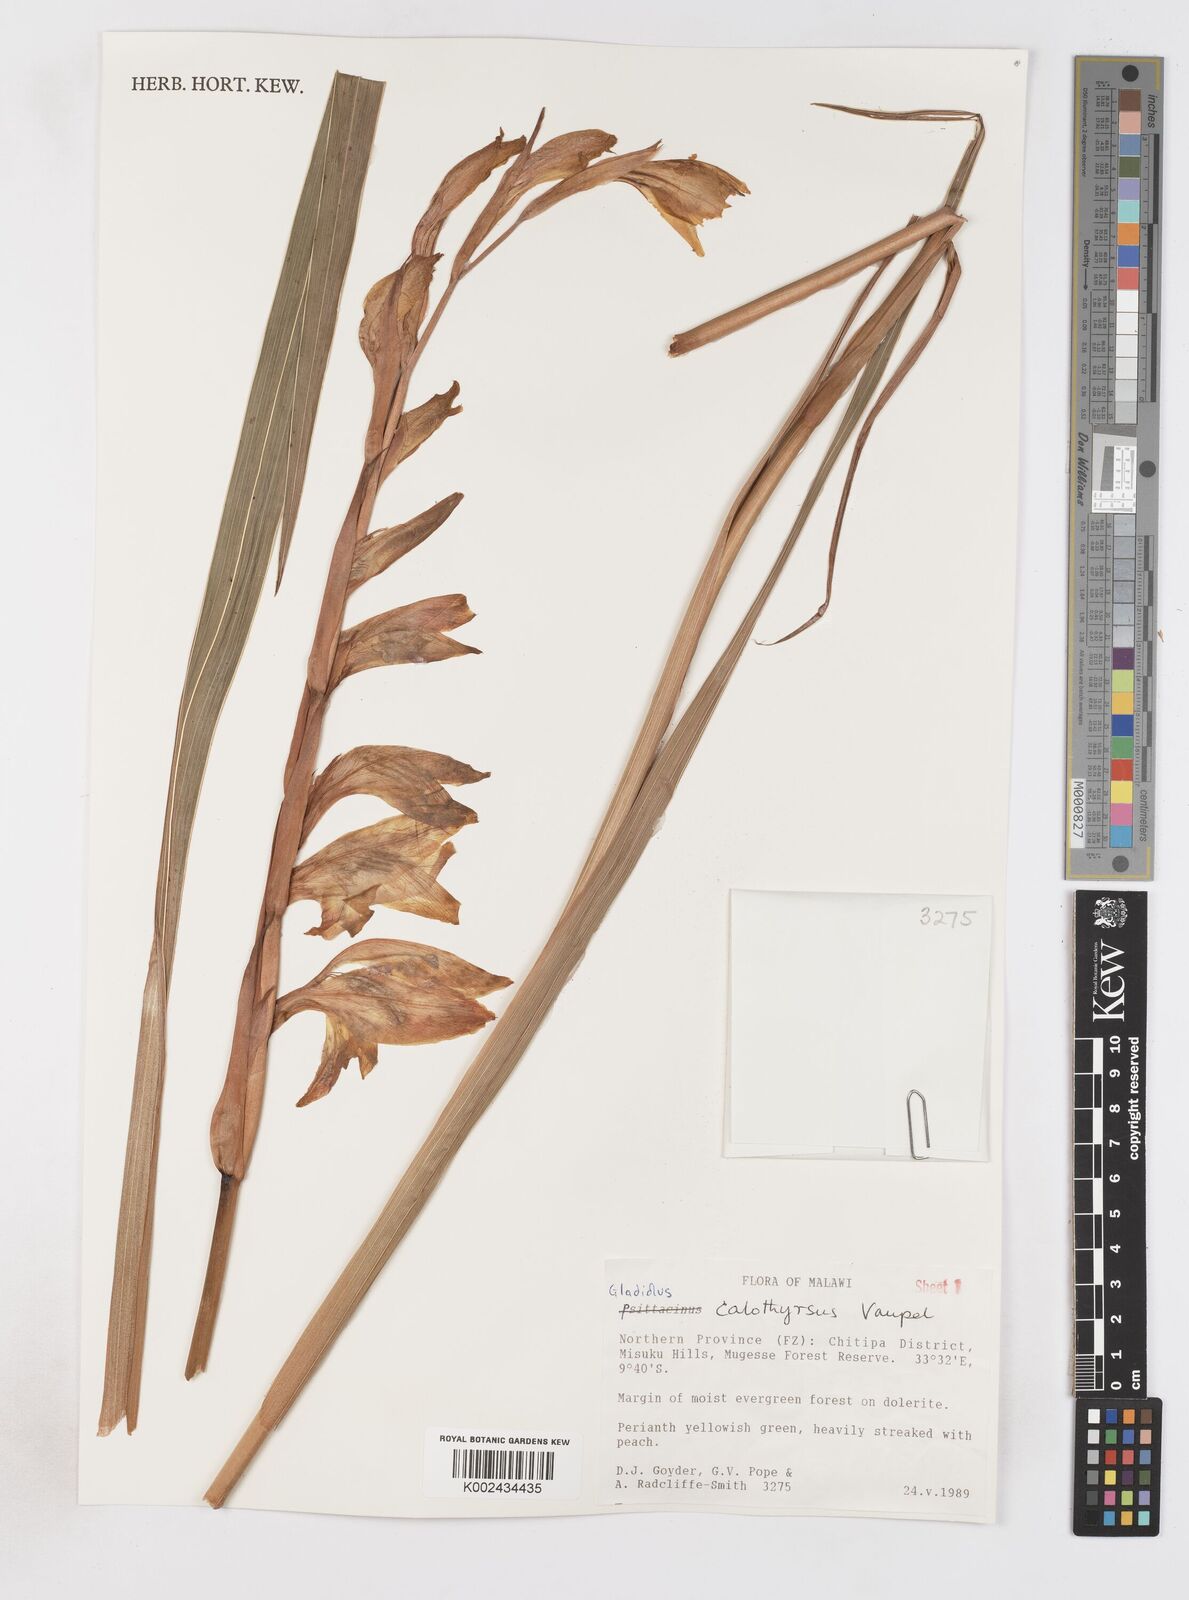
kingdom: Plantae
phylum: Tracheophyta
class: Liliopsida
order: Asparagales
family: Iridaceae
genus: Gladiolus
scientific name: Gladiolus dalenii
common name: Cornflag
